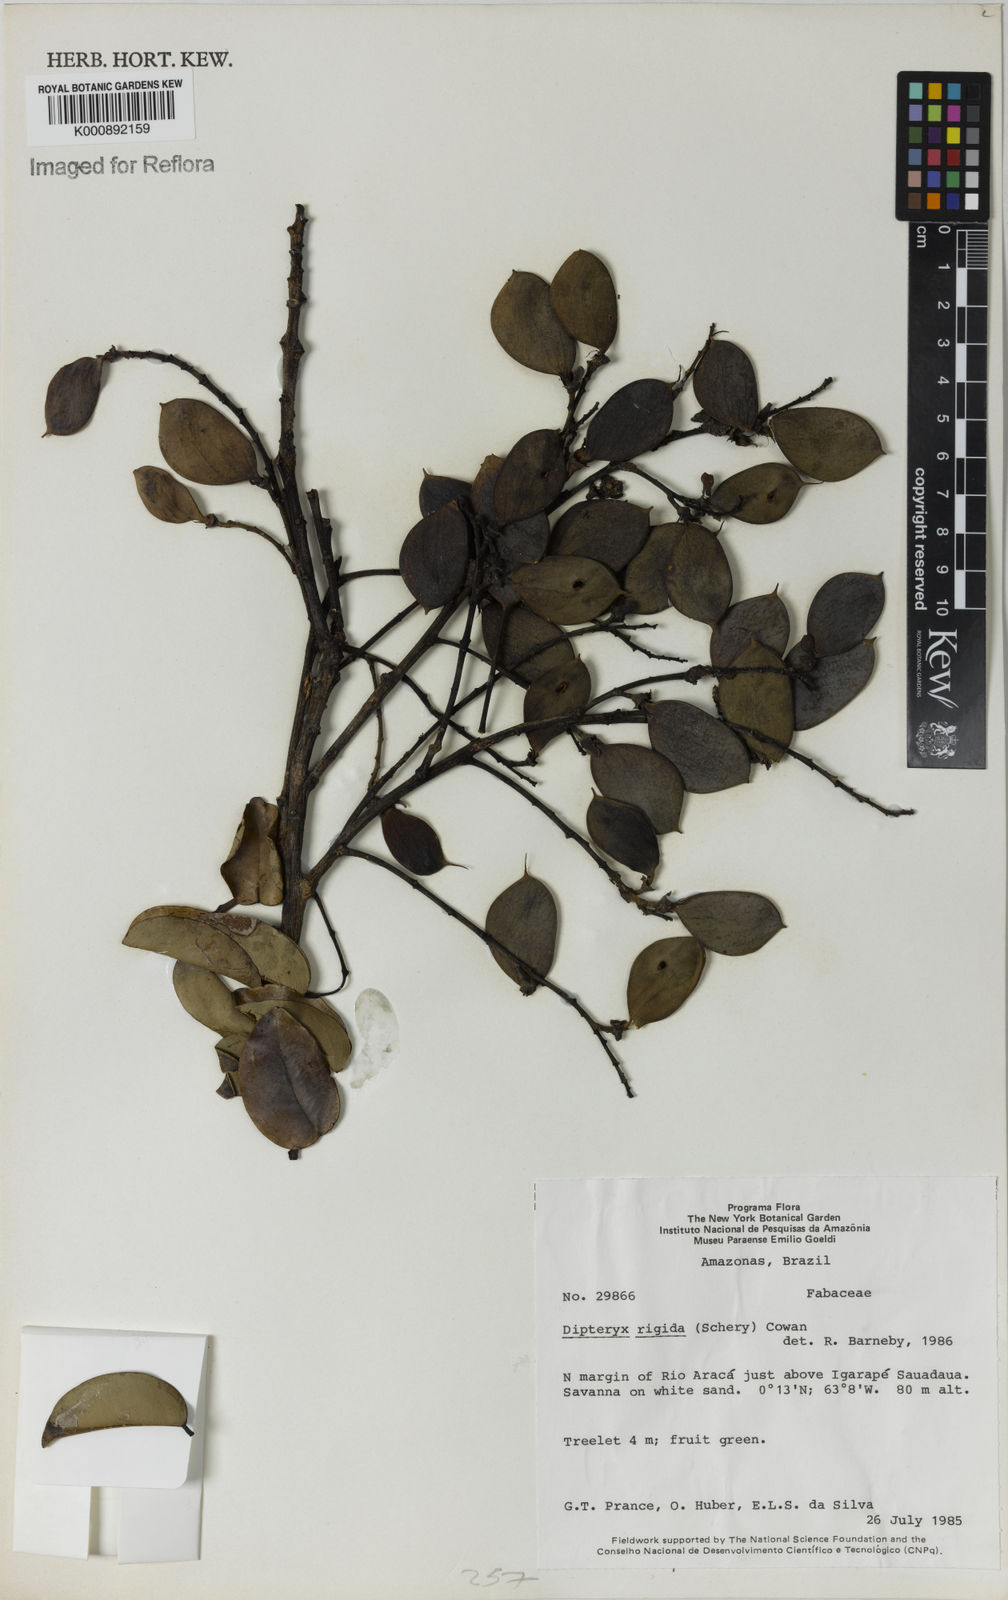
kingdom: Plantae
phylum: Tracheophyta
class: Magnoliopsida
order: Fabales
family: Fabaceae
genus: Taralea
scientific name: Taralea cordata
